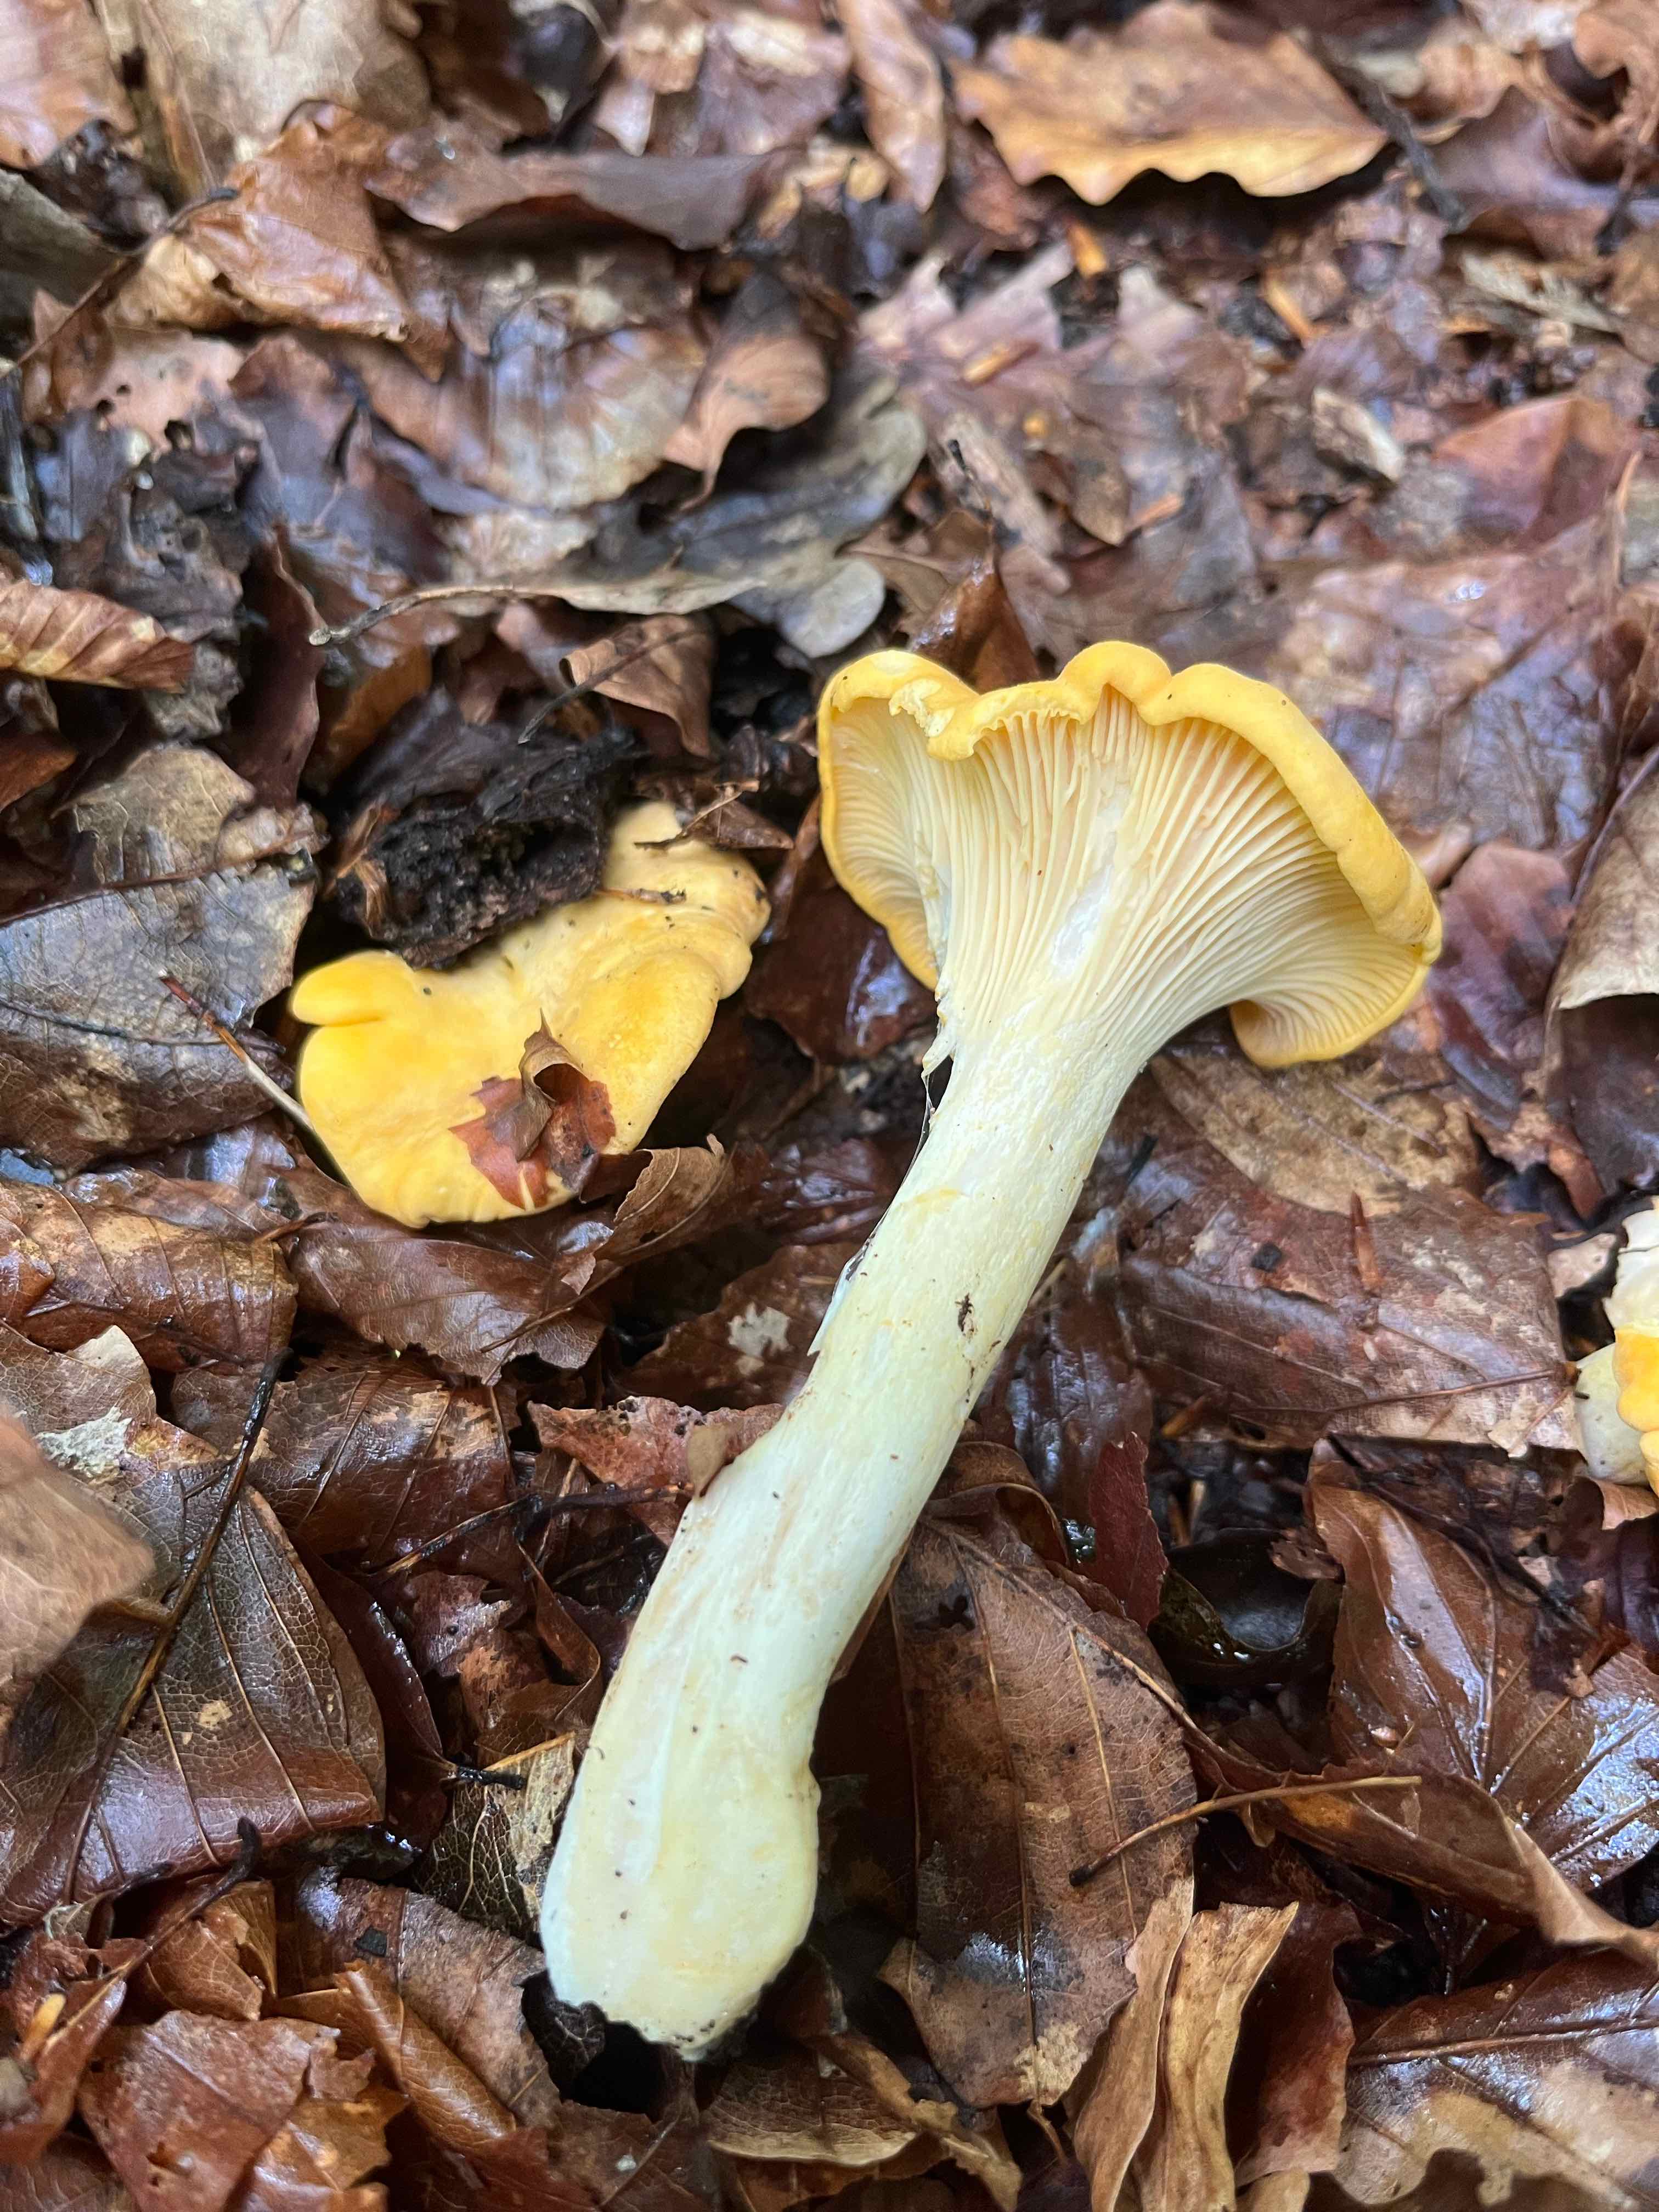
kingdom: Fungi
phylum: Basidiomycota
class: Agaricomycetes
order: Cantharellales
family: Hydnaceae
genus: Cantharellus
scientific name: Cantharellus pallens
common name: bleg kantarel
